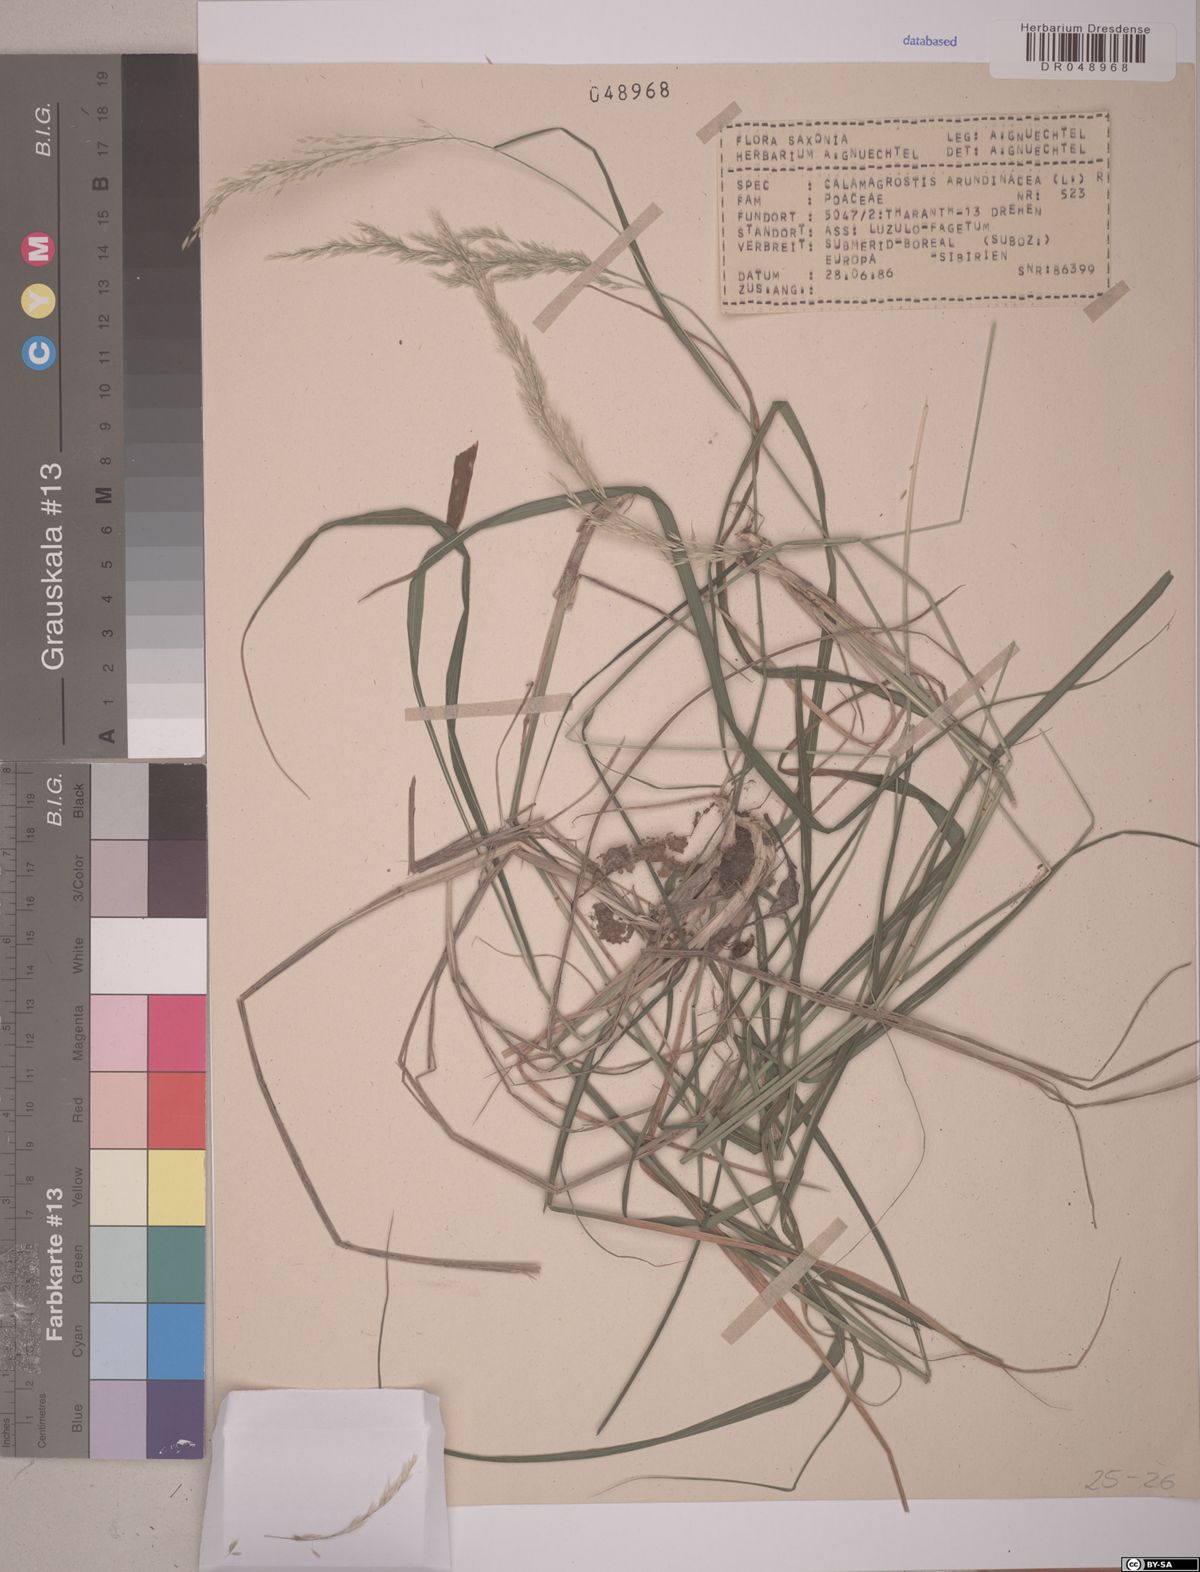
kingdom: Plantae
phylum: Tracheophyta
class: Liliopsida
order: Poales
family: Poaceae
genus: Calamagrostis
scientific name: Calamagrostis arundinacea
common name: Metskastik
